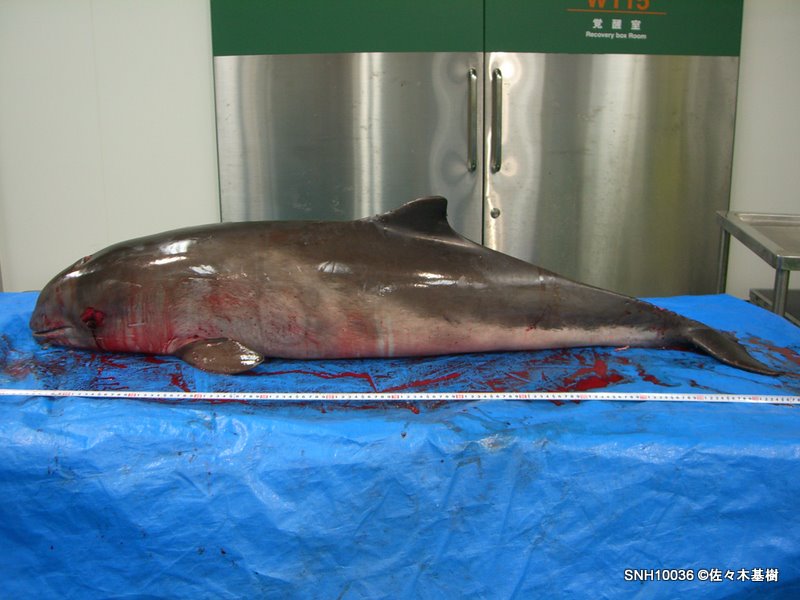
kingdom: Animalia
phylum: Chordata
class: Mammalia
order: Cetacea
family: Phocoenidae
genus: Phocoena
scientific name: Phocoena phocoena
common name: Harbour porpoise
